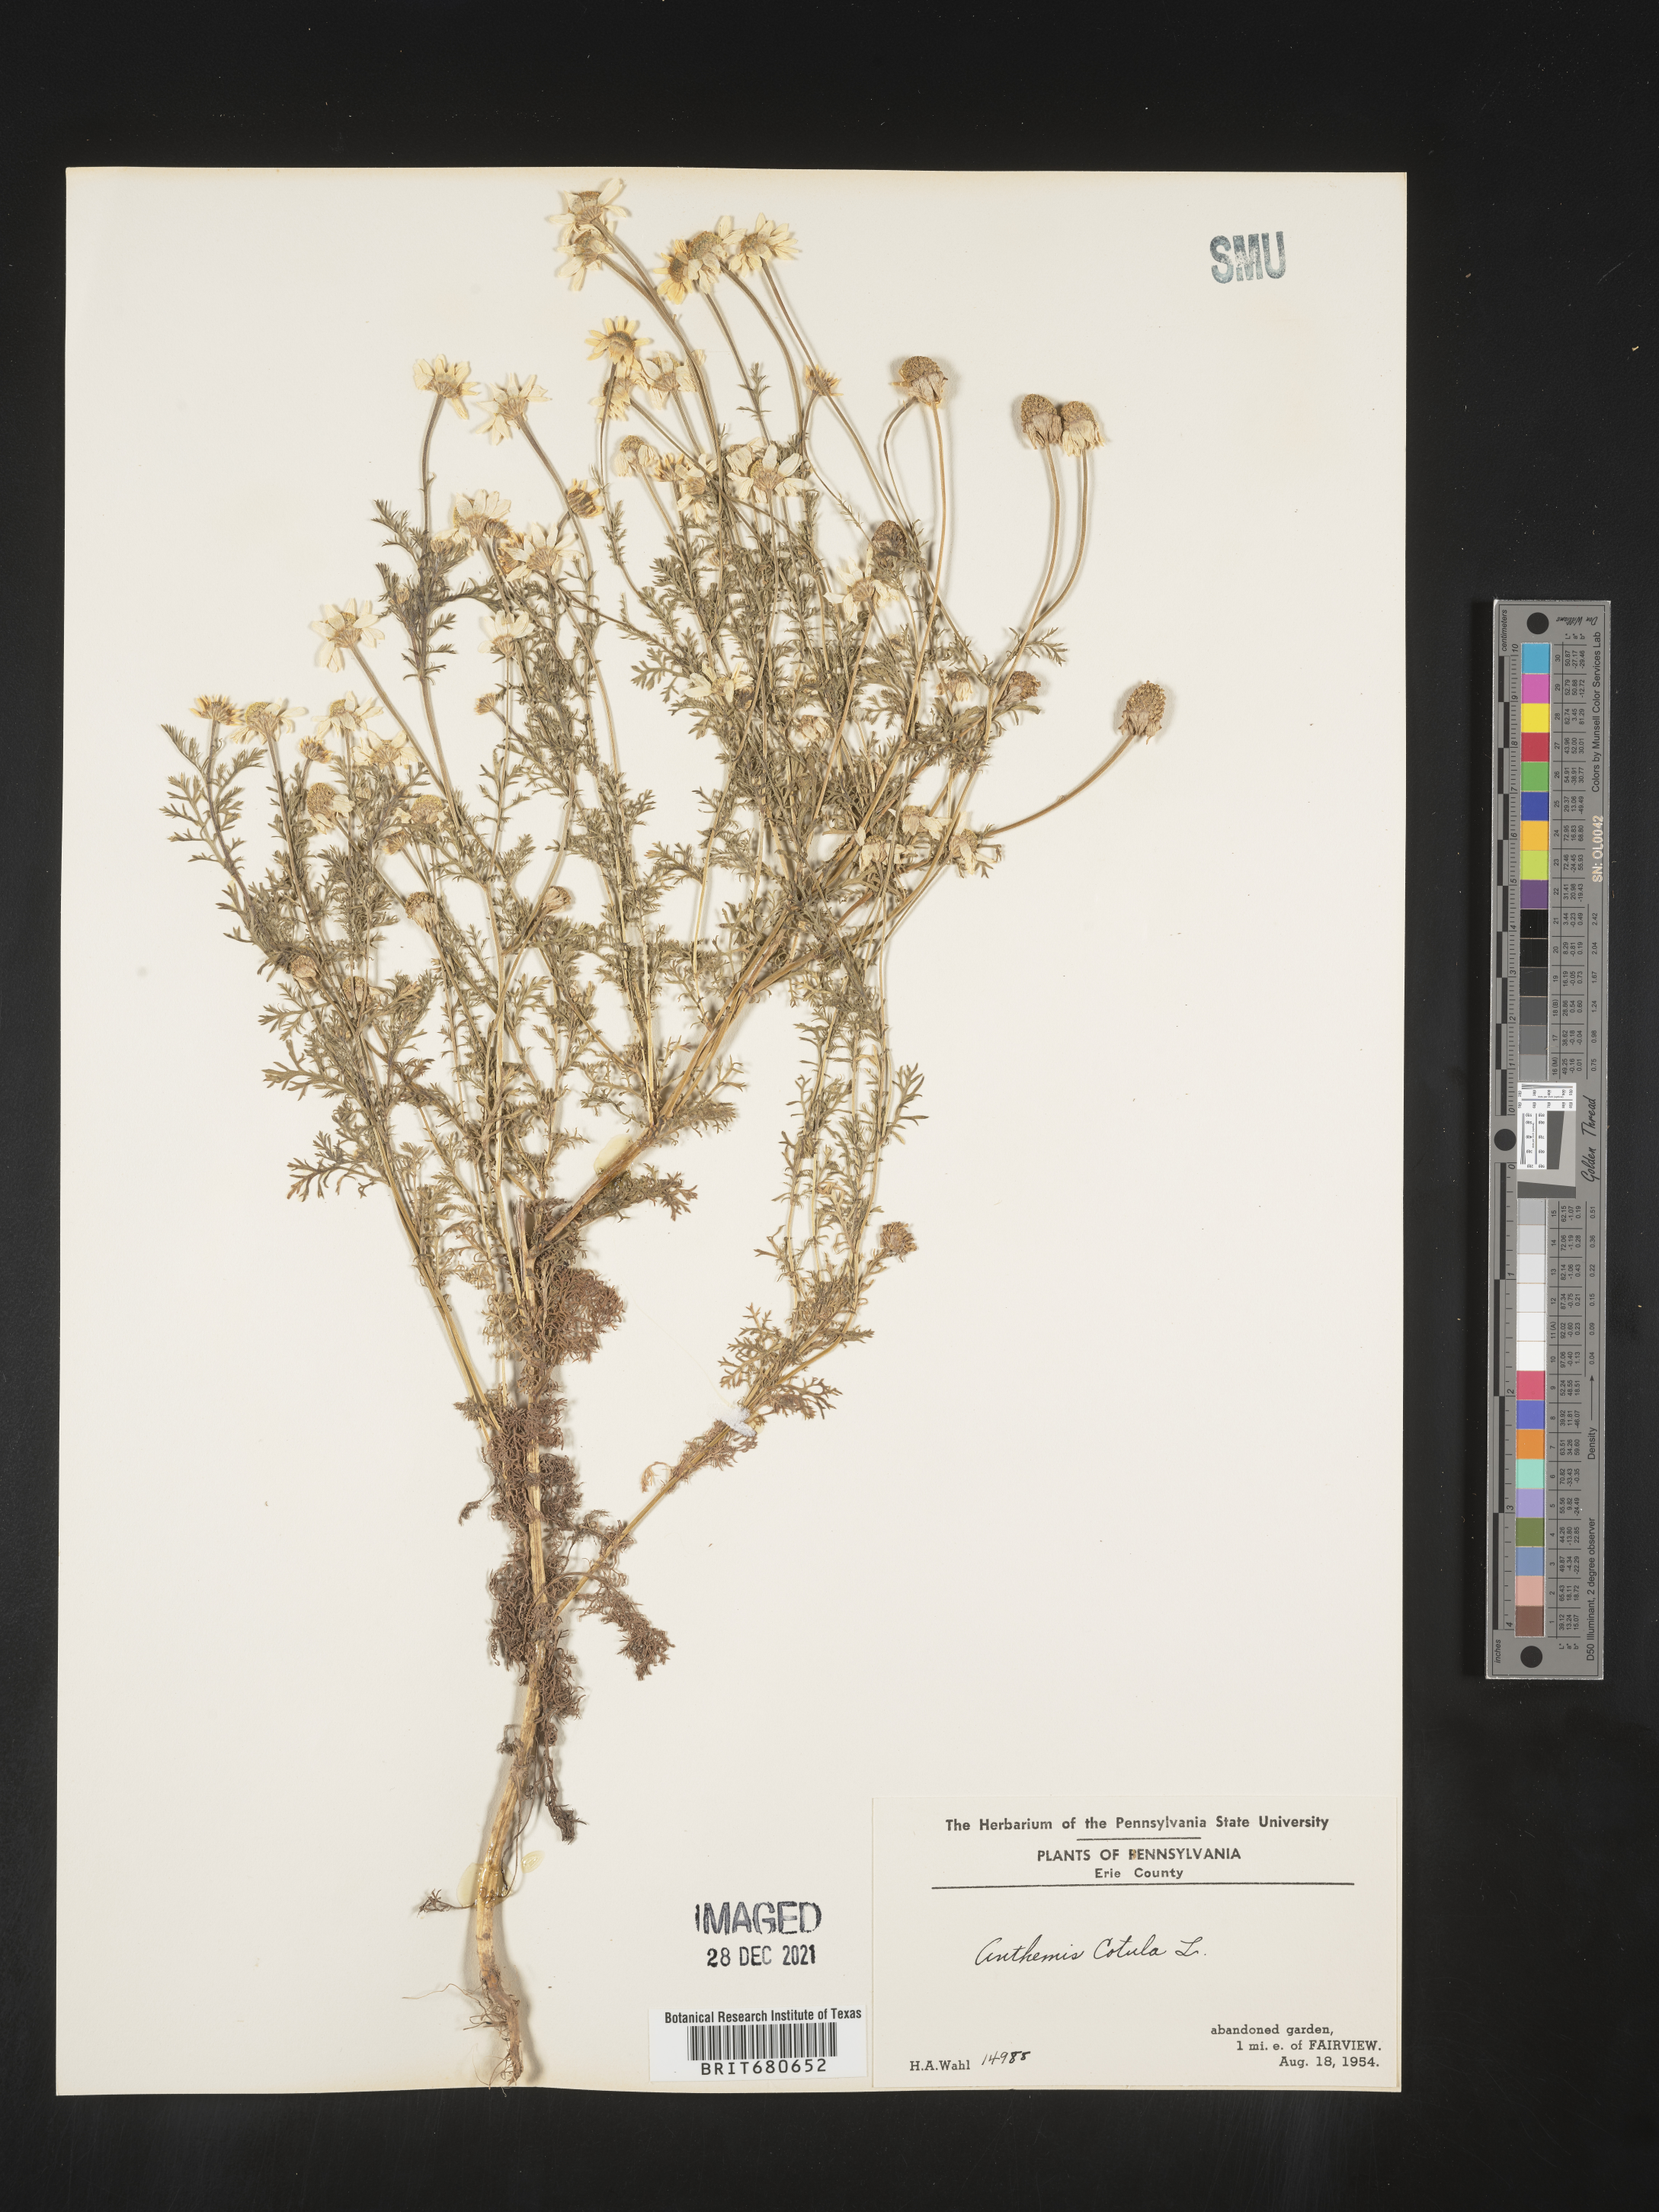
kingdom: Plantae
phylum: Tracheophyta
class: Magnoliopsida
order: Asterales
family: Asteraceae
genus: Anthemis
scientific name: Anthemis cotula
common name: Stinking chamomile
